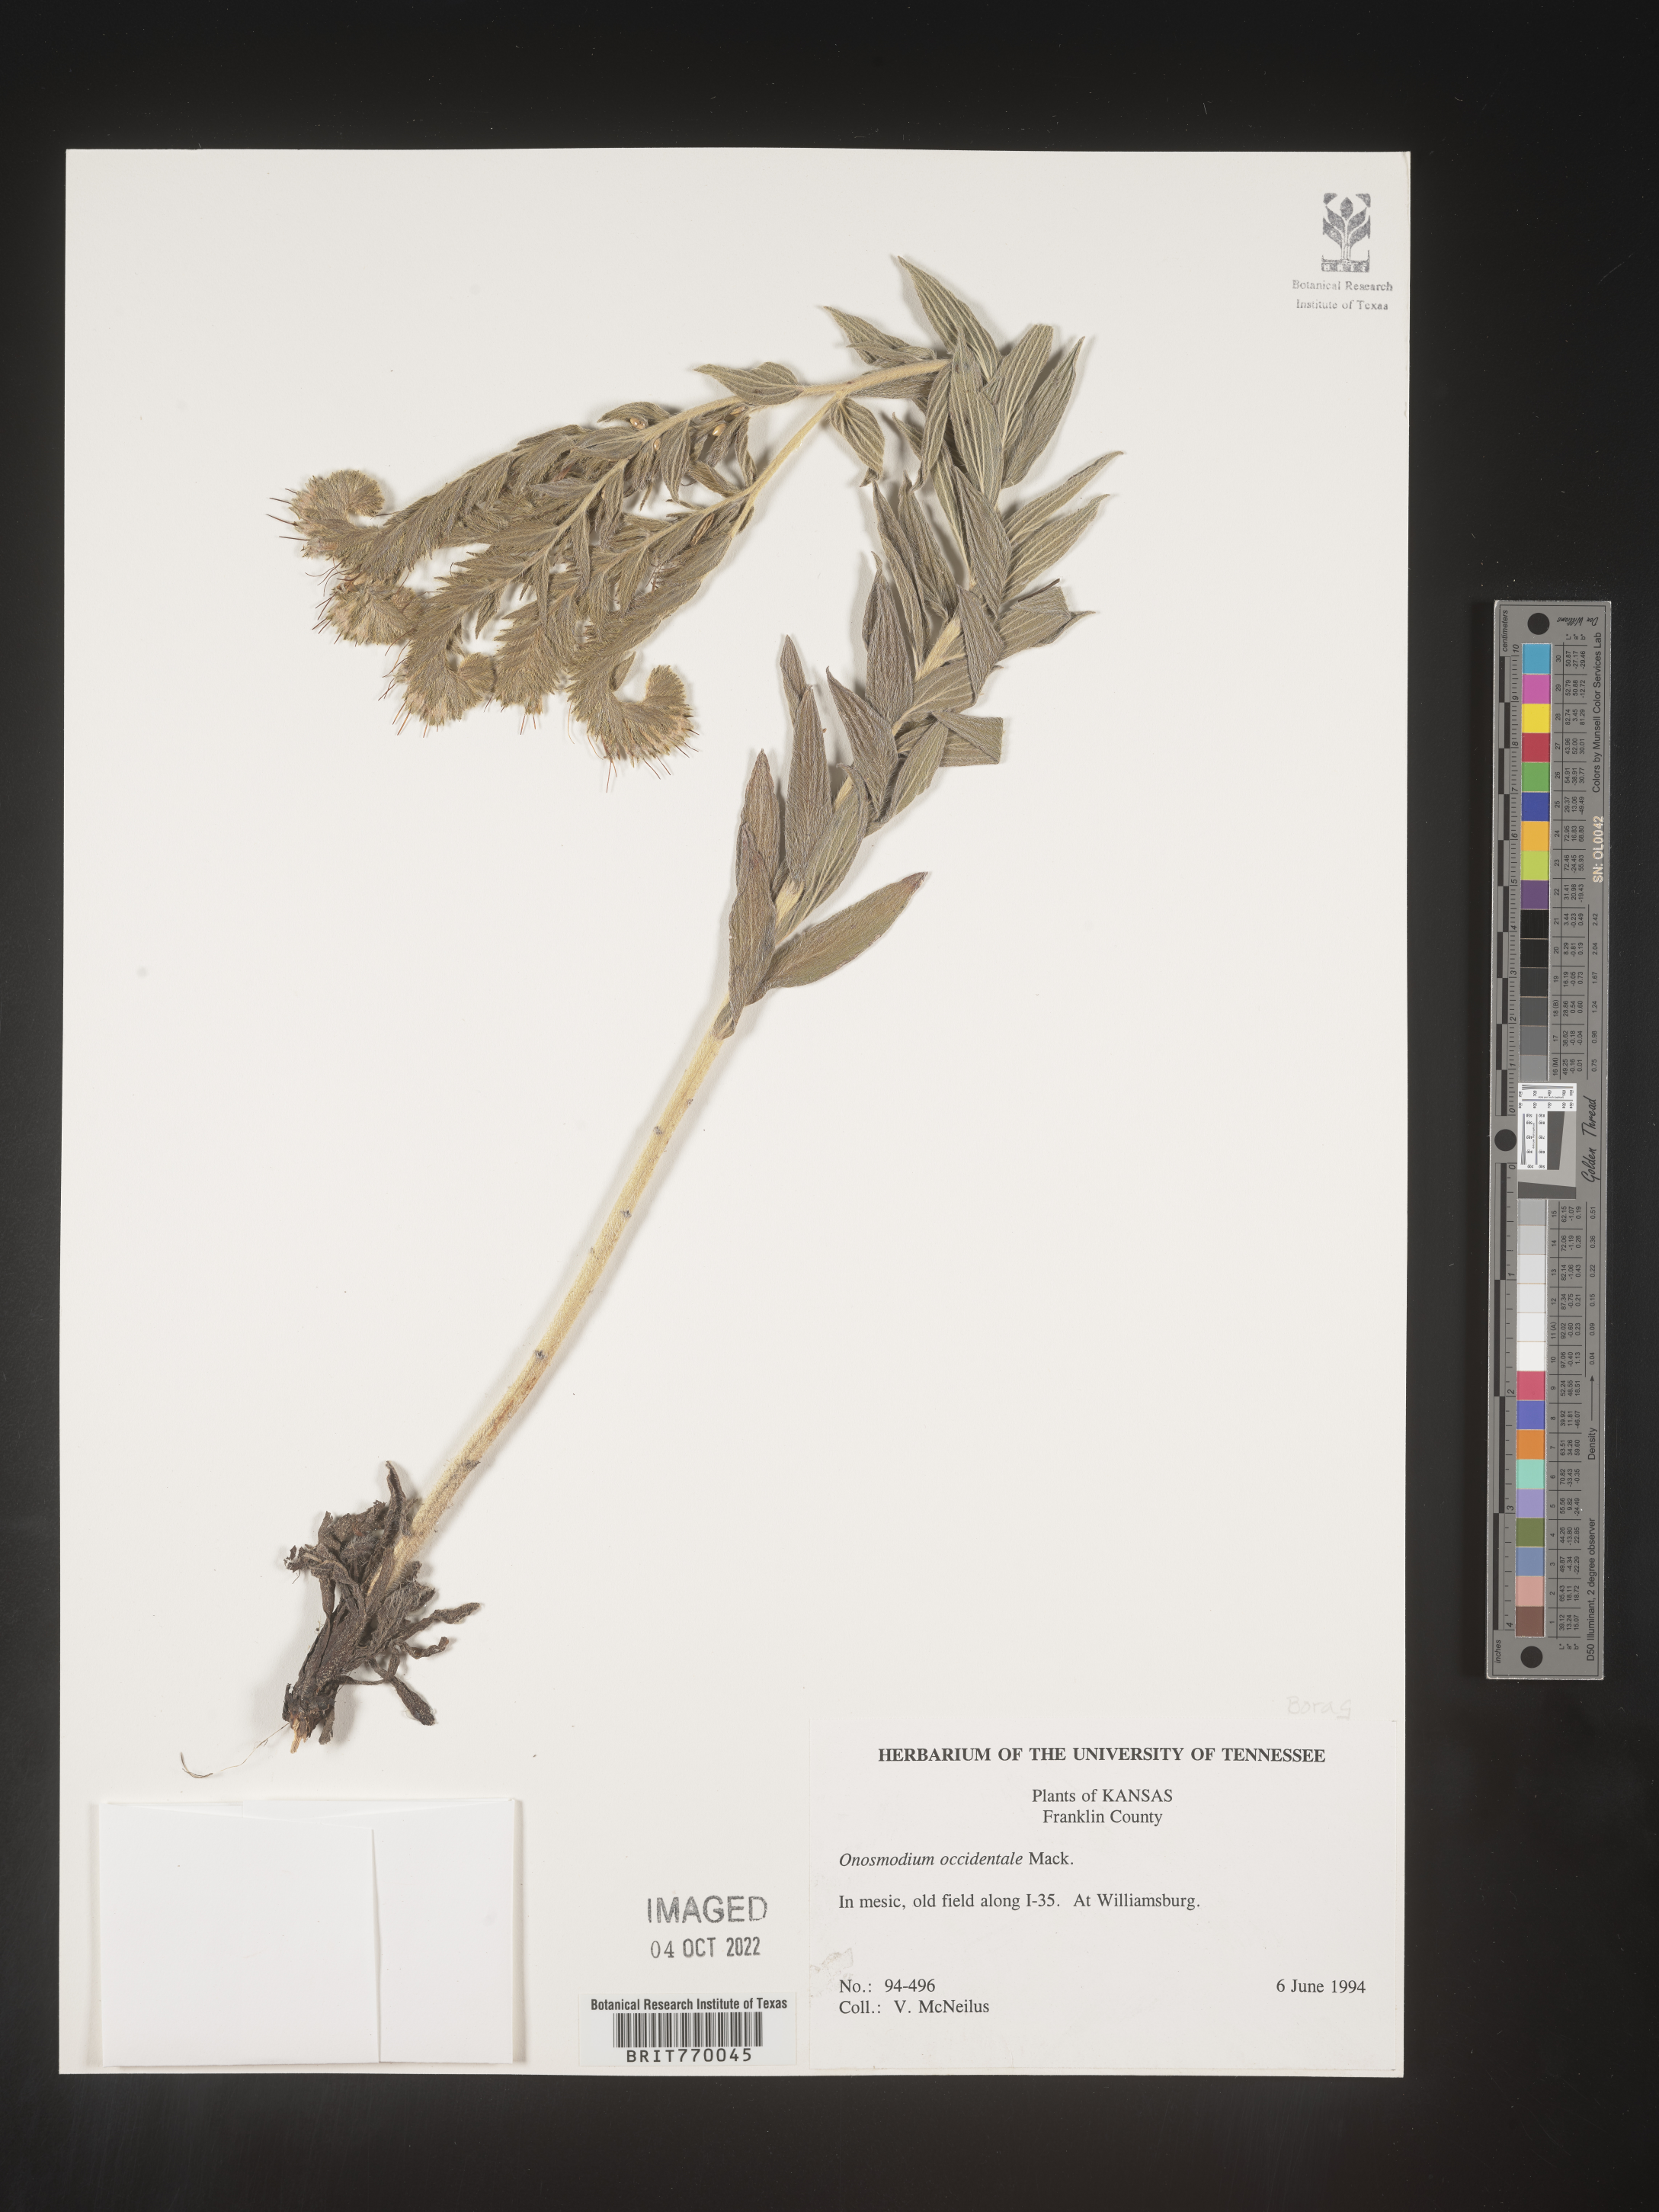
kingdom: Plantae
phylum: Tracheophyta
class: Magnoliopsida
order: Boraginales
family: Boraginaceae
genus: Lithospermum
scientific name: Lithospermum occidentale
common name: Western false gromwell
